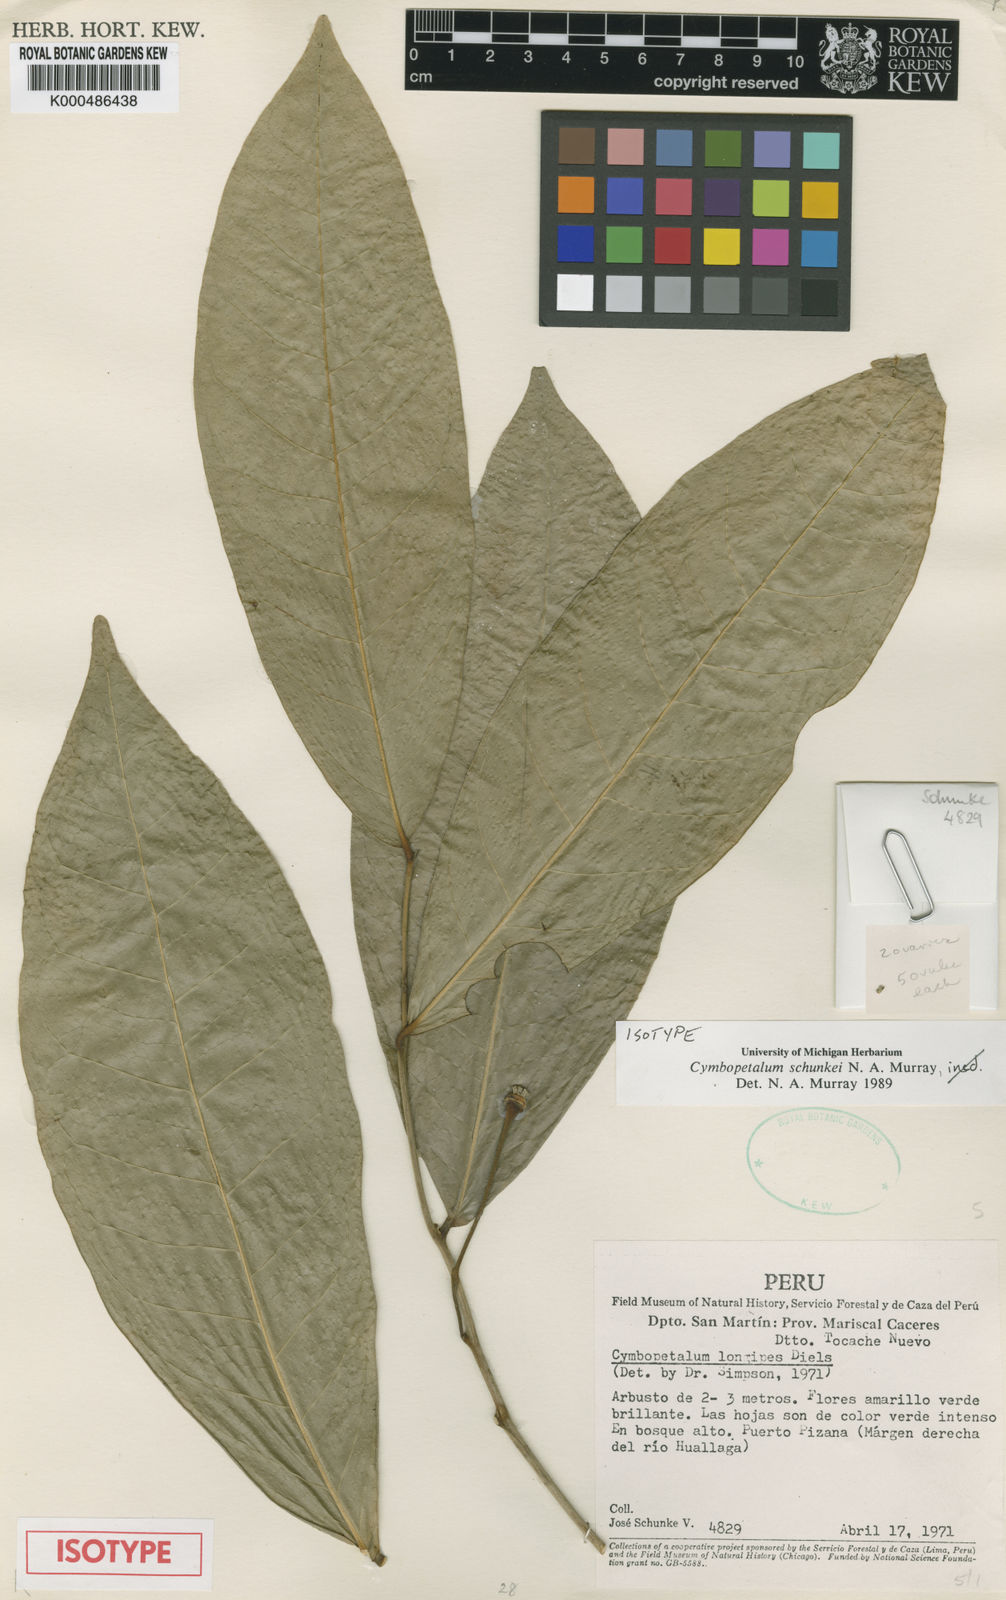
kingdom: Plantae
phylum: Tracheophyta
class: Magnoliopsida
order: Magnoliales
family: Annonaceae
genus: Cymbopetalum
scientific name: Cymbopetalum schunkei
